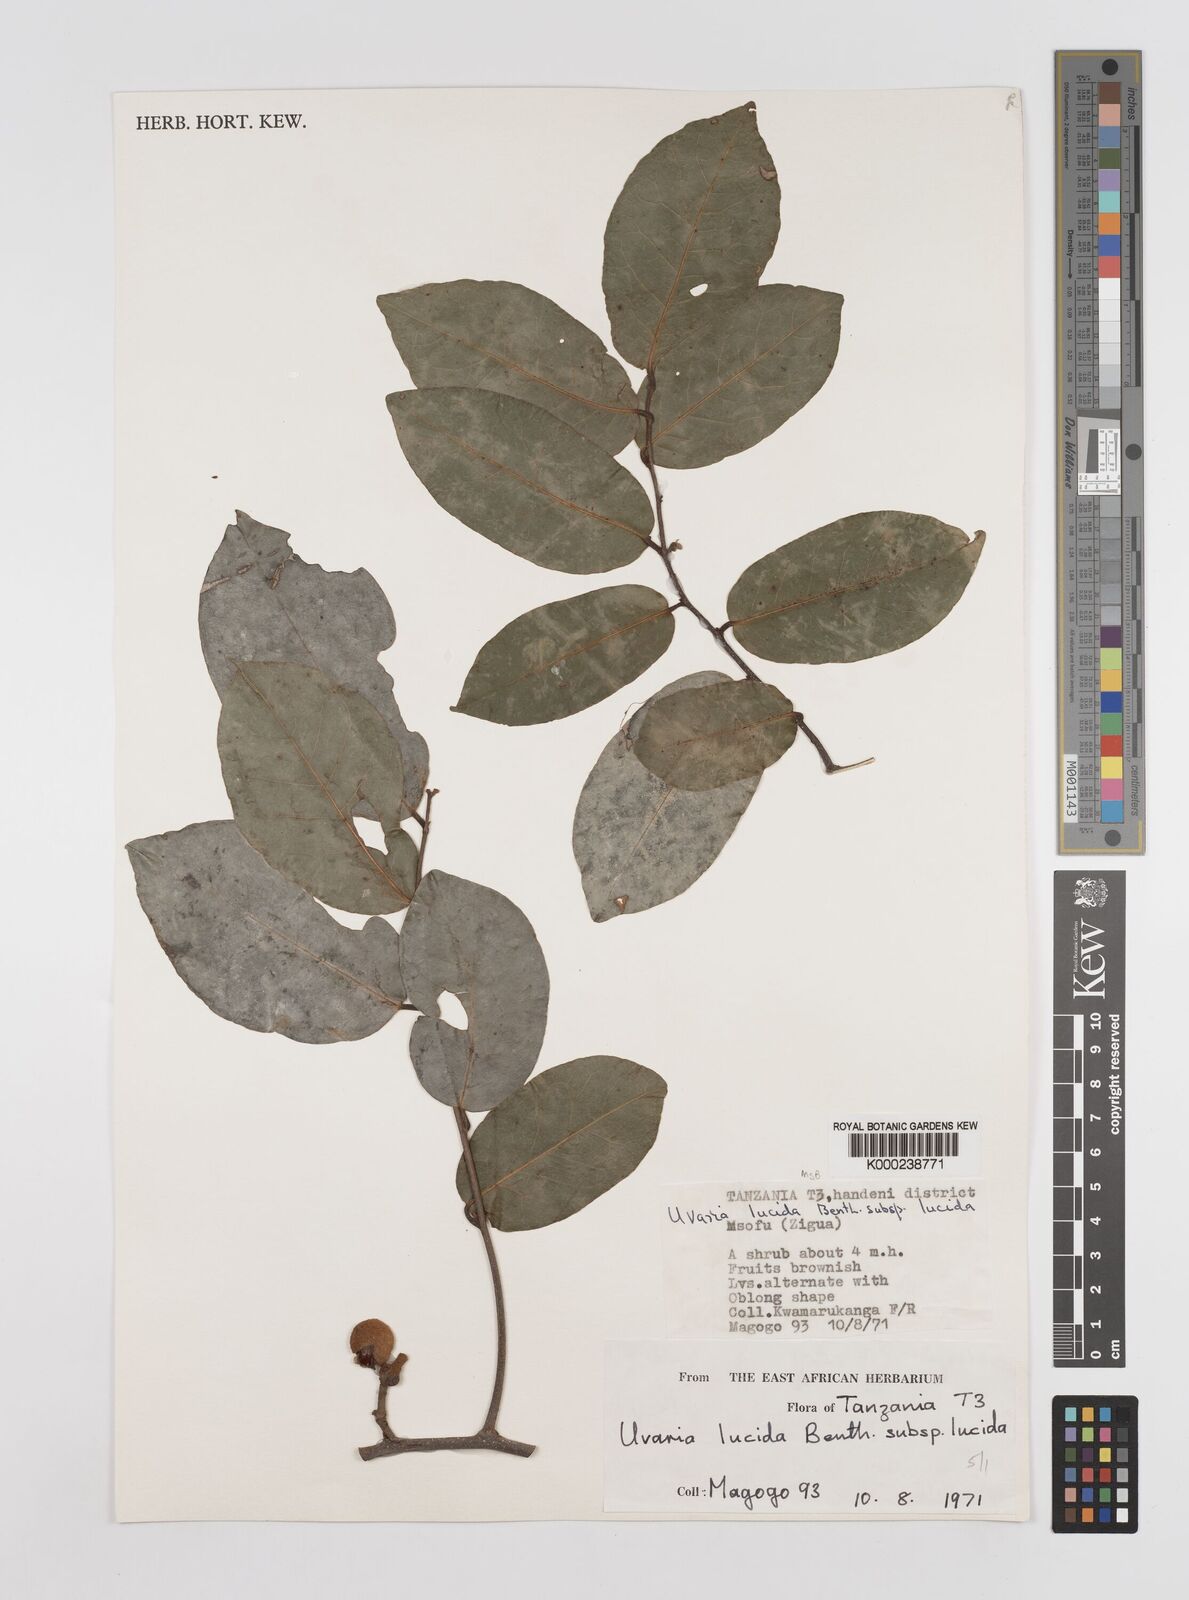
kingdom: Plantae
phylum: Tracheophyta
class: Magnoliopsida
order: Magnoliales
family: Annonaceae
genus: Uvaria
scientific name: Uvaria lucida
